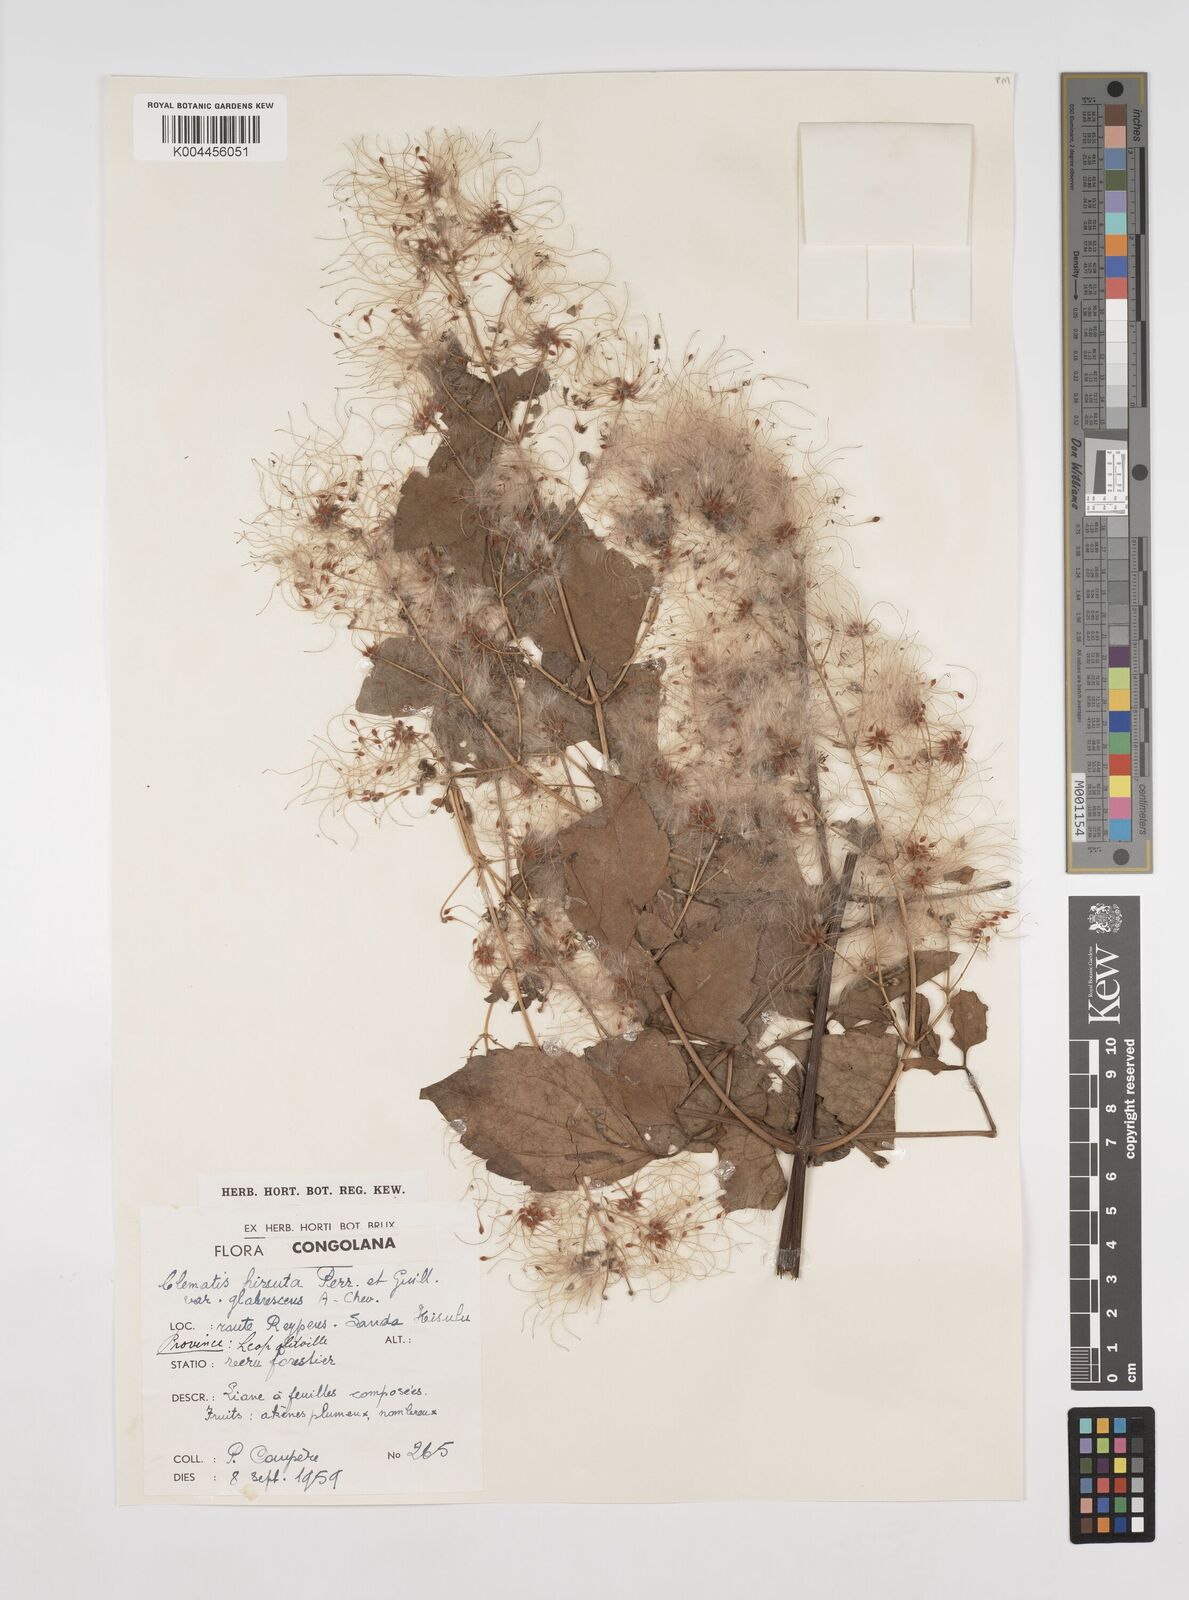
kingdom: Plantae
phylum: Tracheophyta
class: Magnoliopsida
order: Ranunculales
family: Ranunculaceae
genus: Clematis
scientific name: Clematis hirsuta
